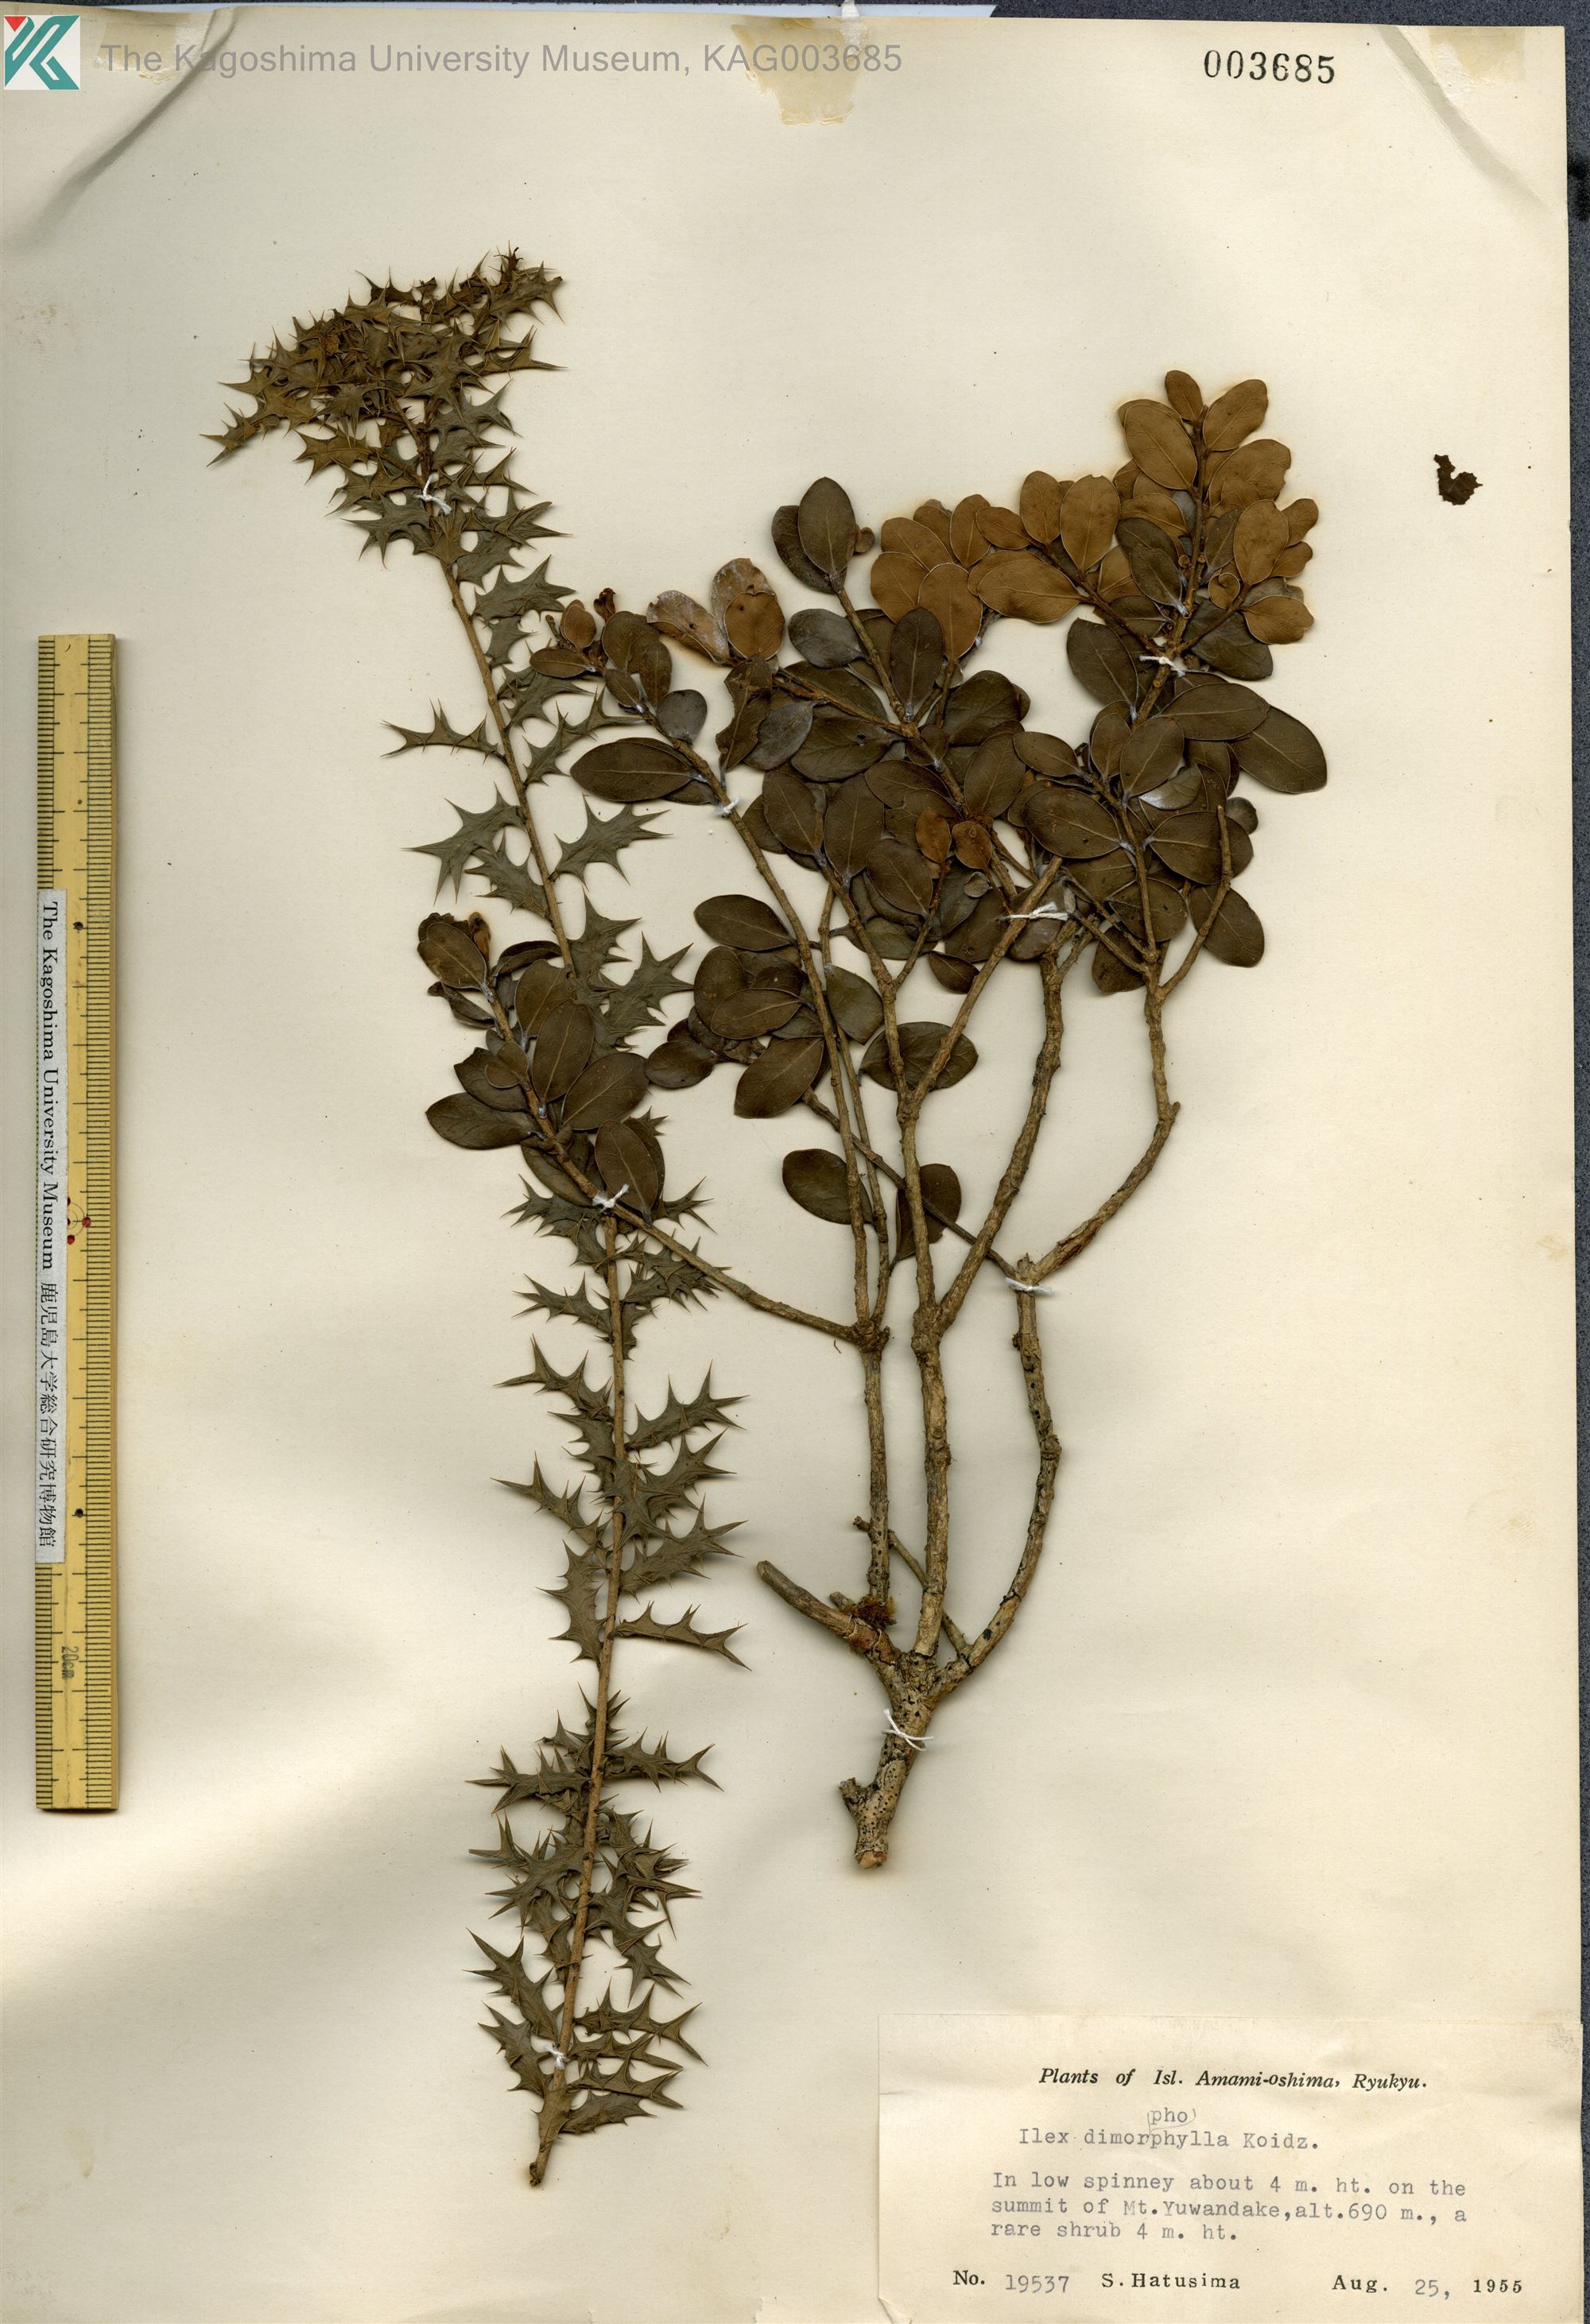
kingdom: Plantae
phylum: Tracheophyta
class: Magnoliopsida
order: Aquifoliales
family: Aquifoliaceae
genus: Ilex
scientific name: Ilex
